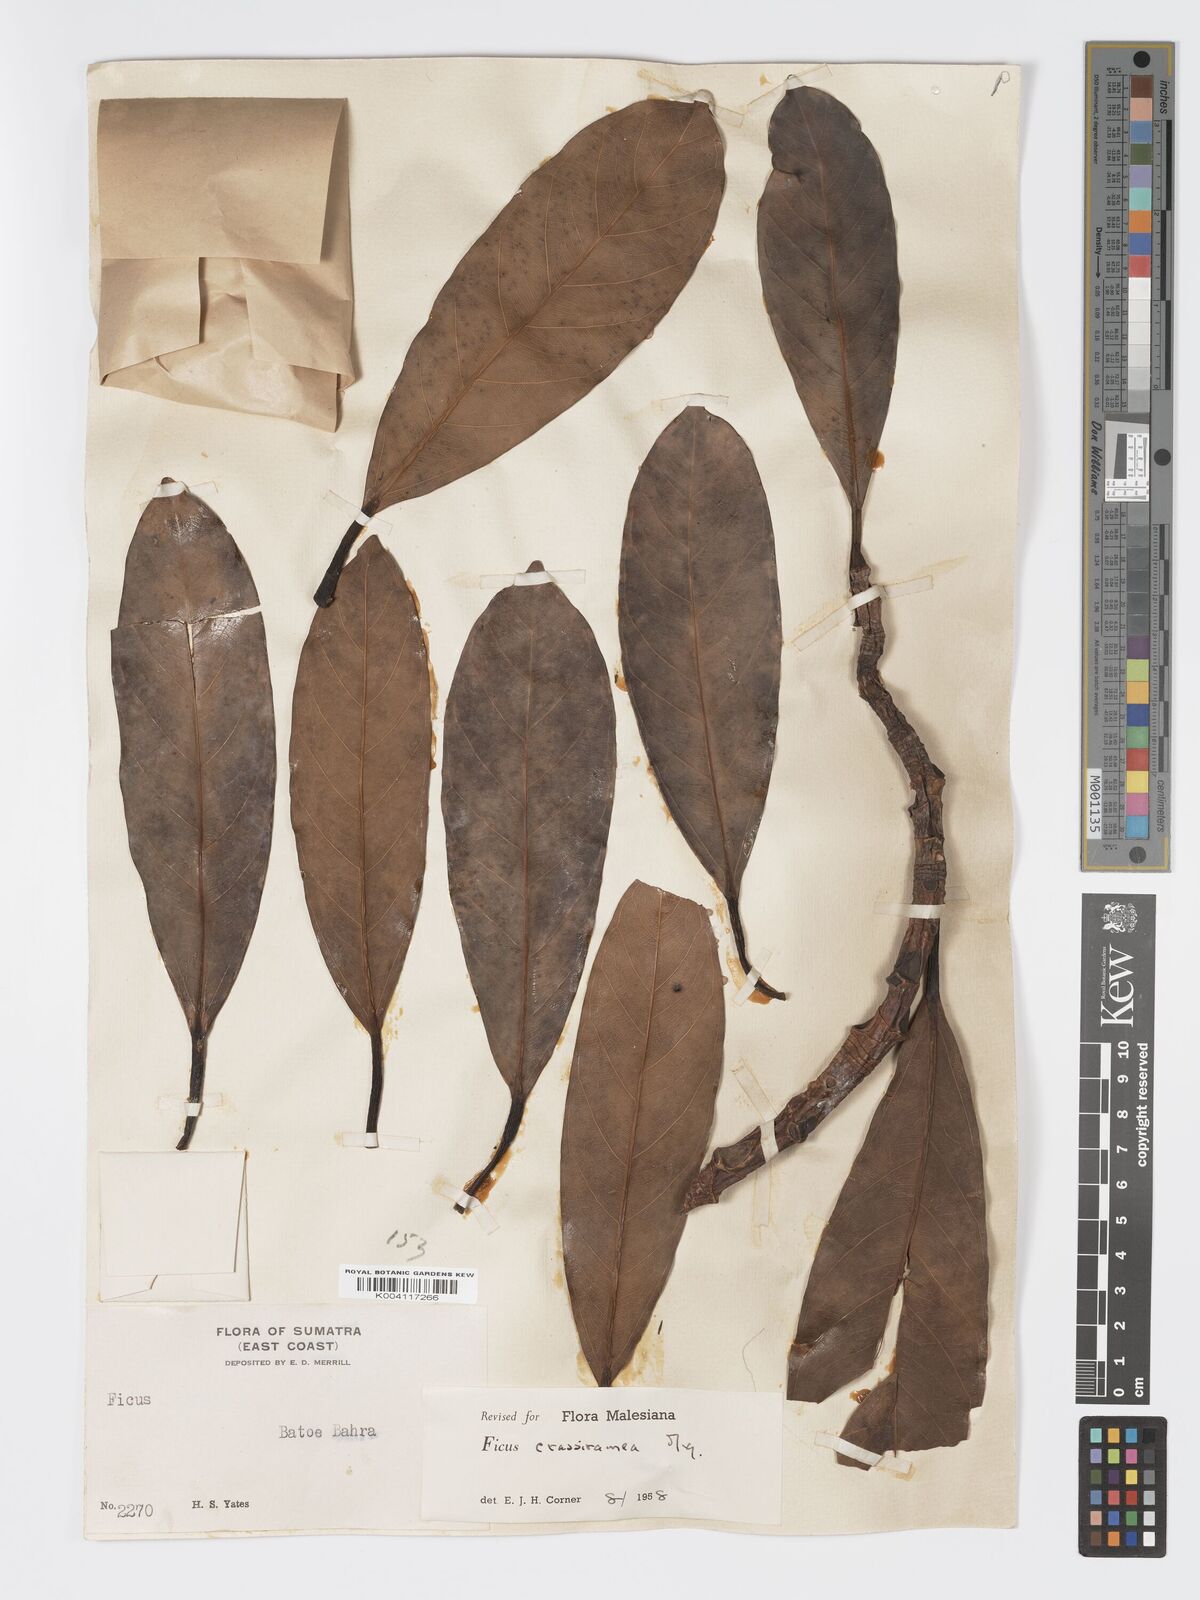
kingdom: Plantae
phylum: Tracheophyta
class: Magnoliopsida
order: Rosales
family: Moraceae
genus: Ficus
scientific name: Ficus crassiramea
